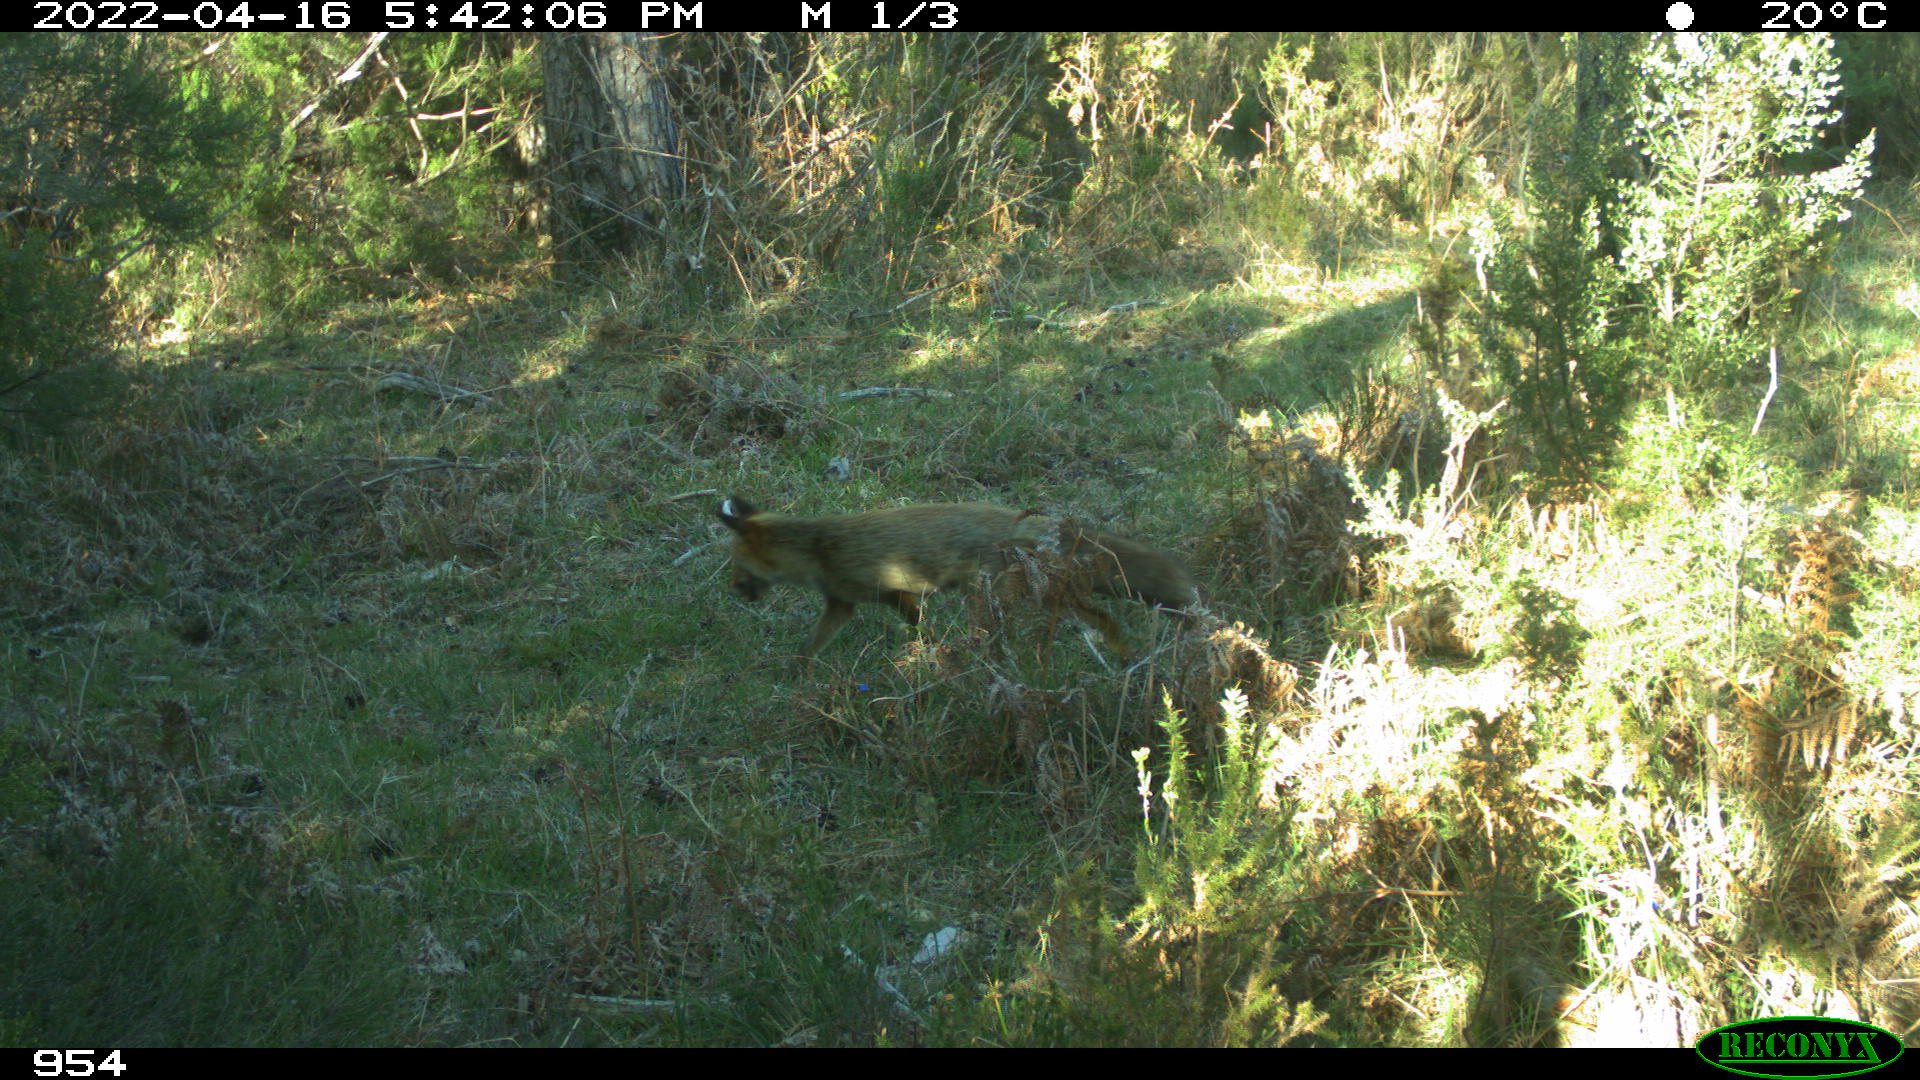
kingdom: Animalia
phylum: Chordata
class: Mammalia
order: Carnivora
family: Canidae
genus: Vulpes
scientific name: Vulpes vulpes
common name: Red fox
